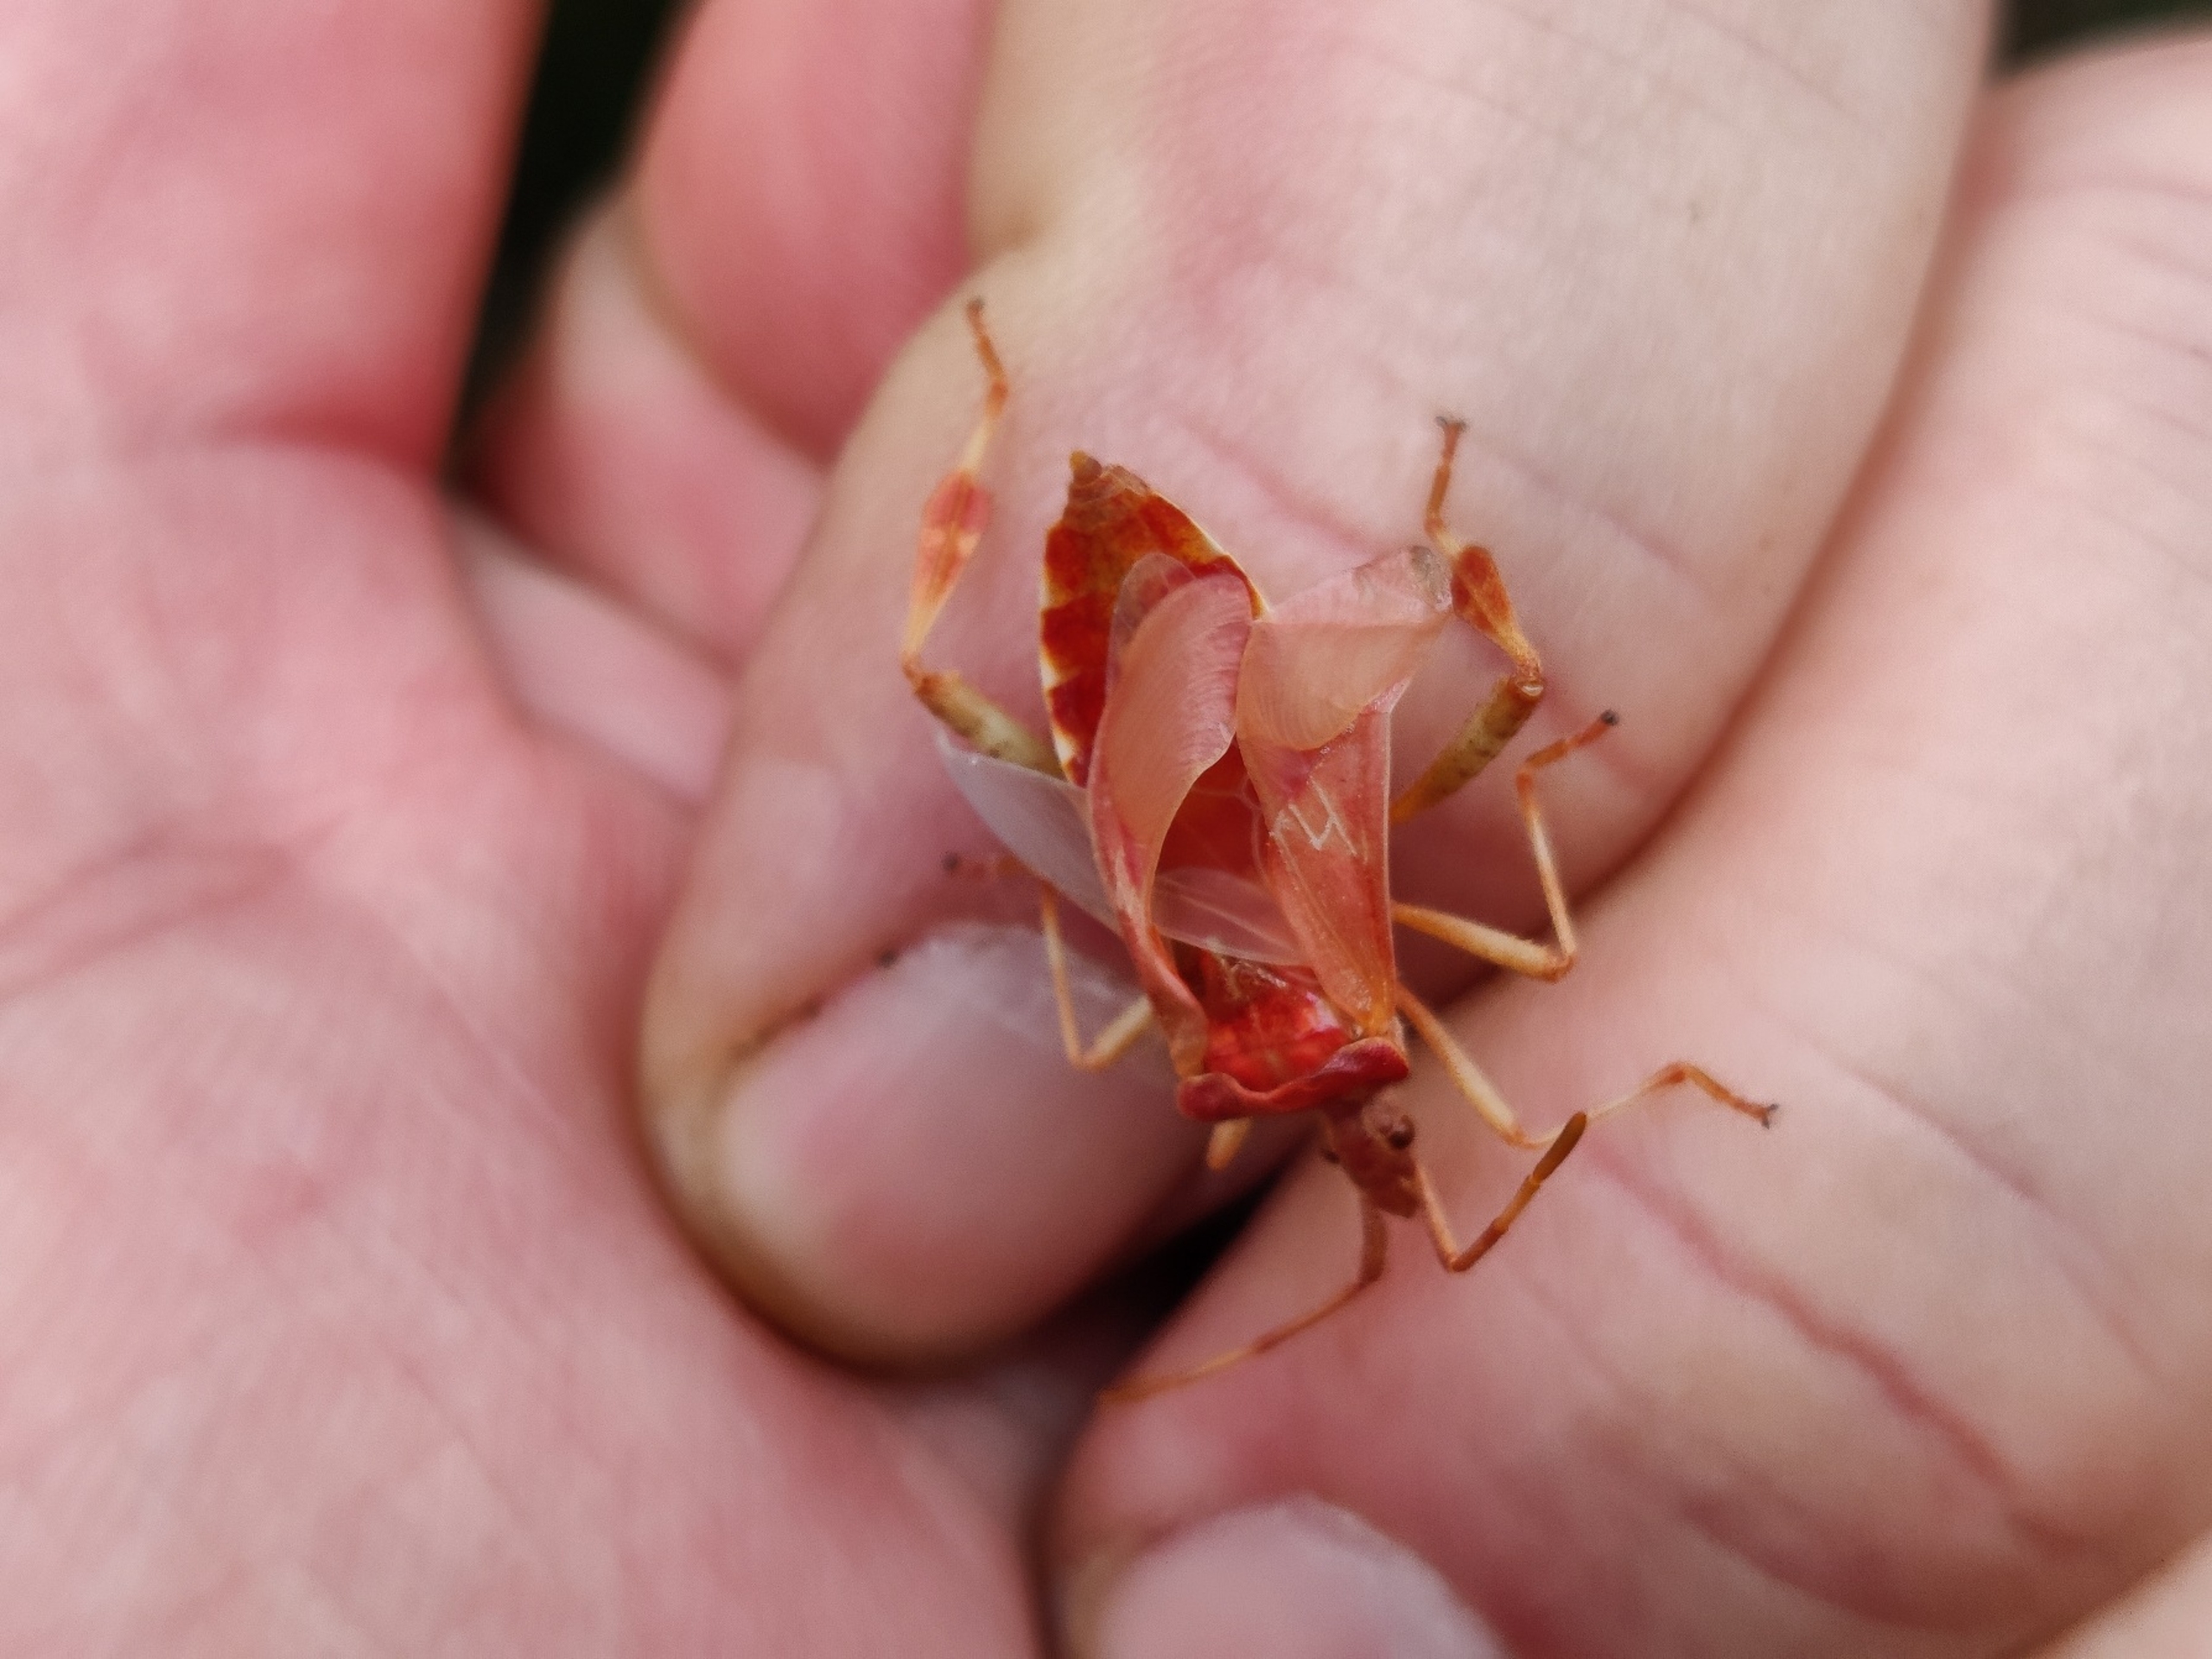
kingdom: Animalia
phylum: Arthropoda
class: Insecta
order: Hemiptera
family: Coreidae
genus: Leptoglossus
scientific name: Leptoglossus occidentalis
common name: Amerikansk fyrretæge
